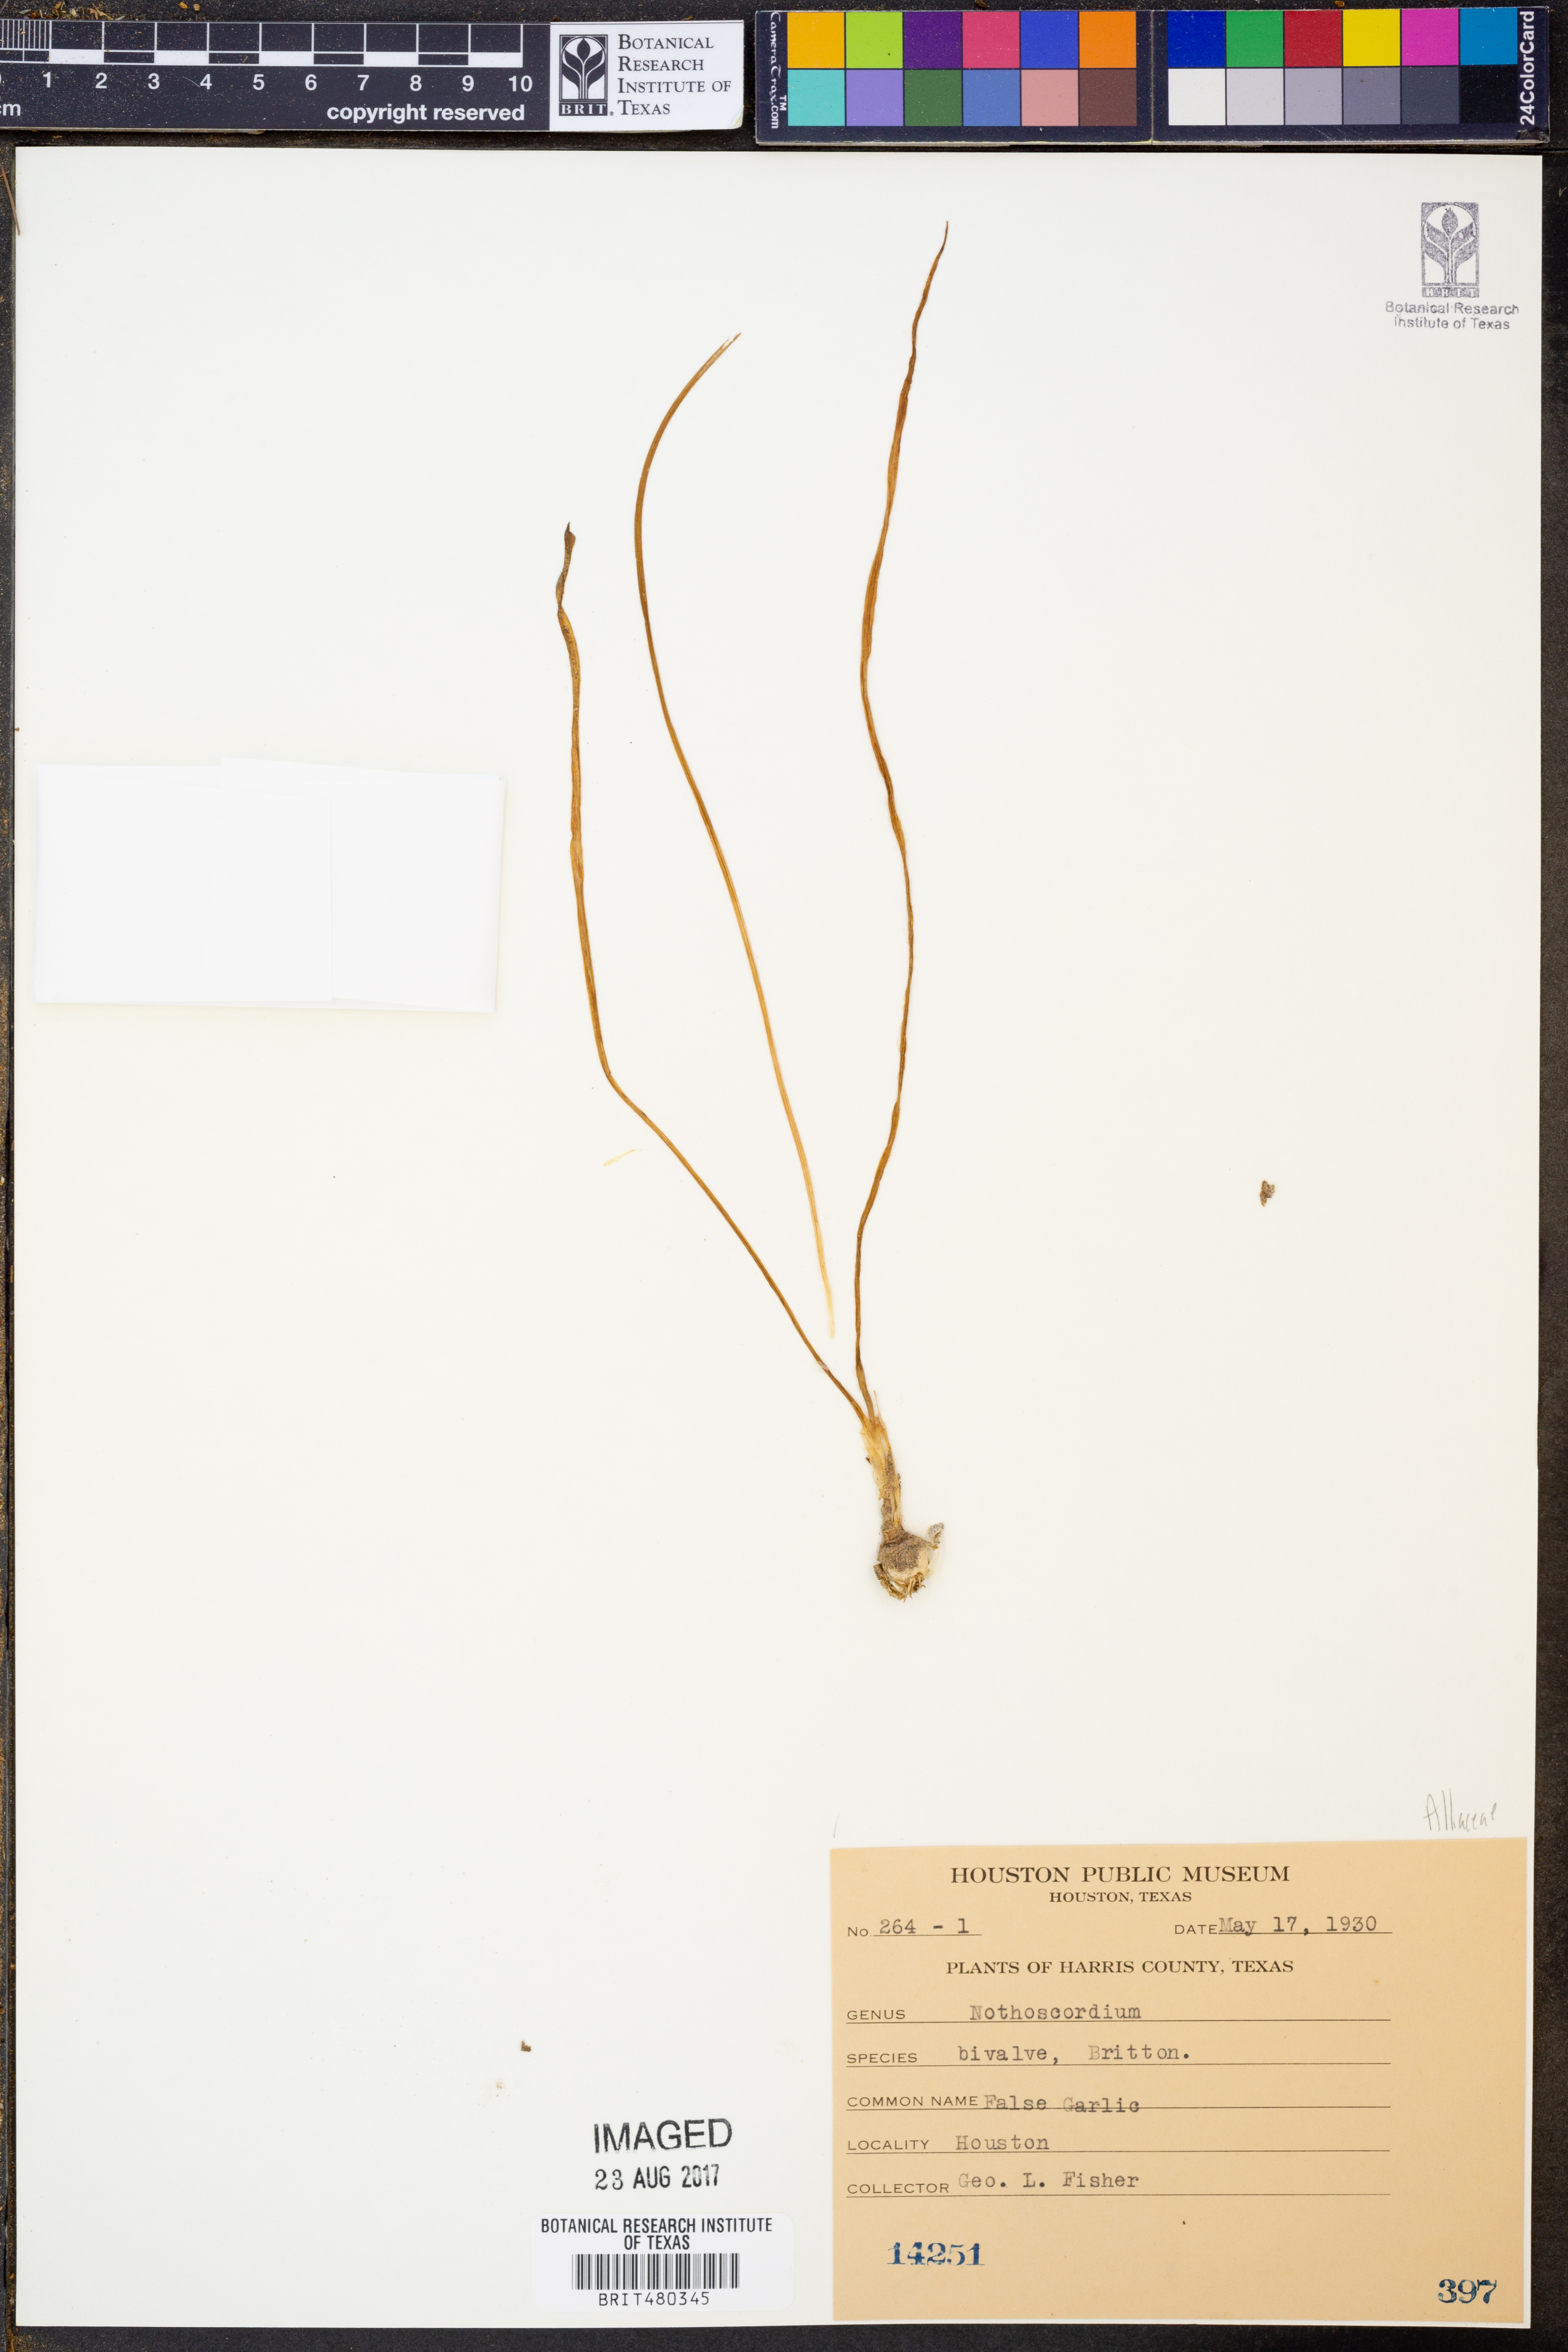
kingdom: Plantae
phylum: Tracheophyta
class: Liliopsida
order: Asparagales
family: Amaryllidaceae
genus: Nothoscordum
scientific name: Nothoscordum bivalve
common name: Crow-poison
